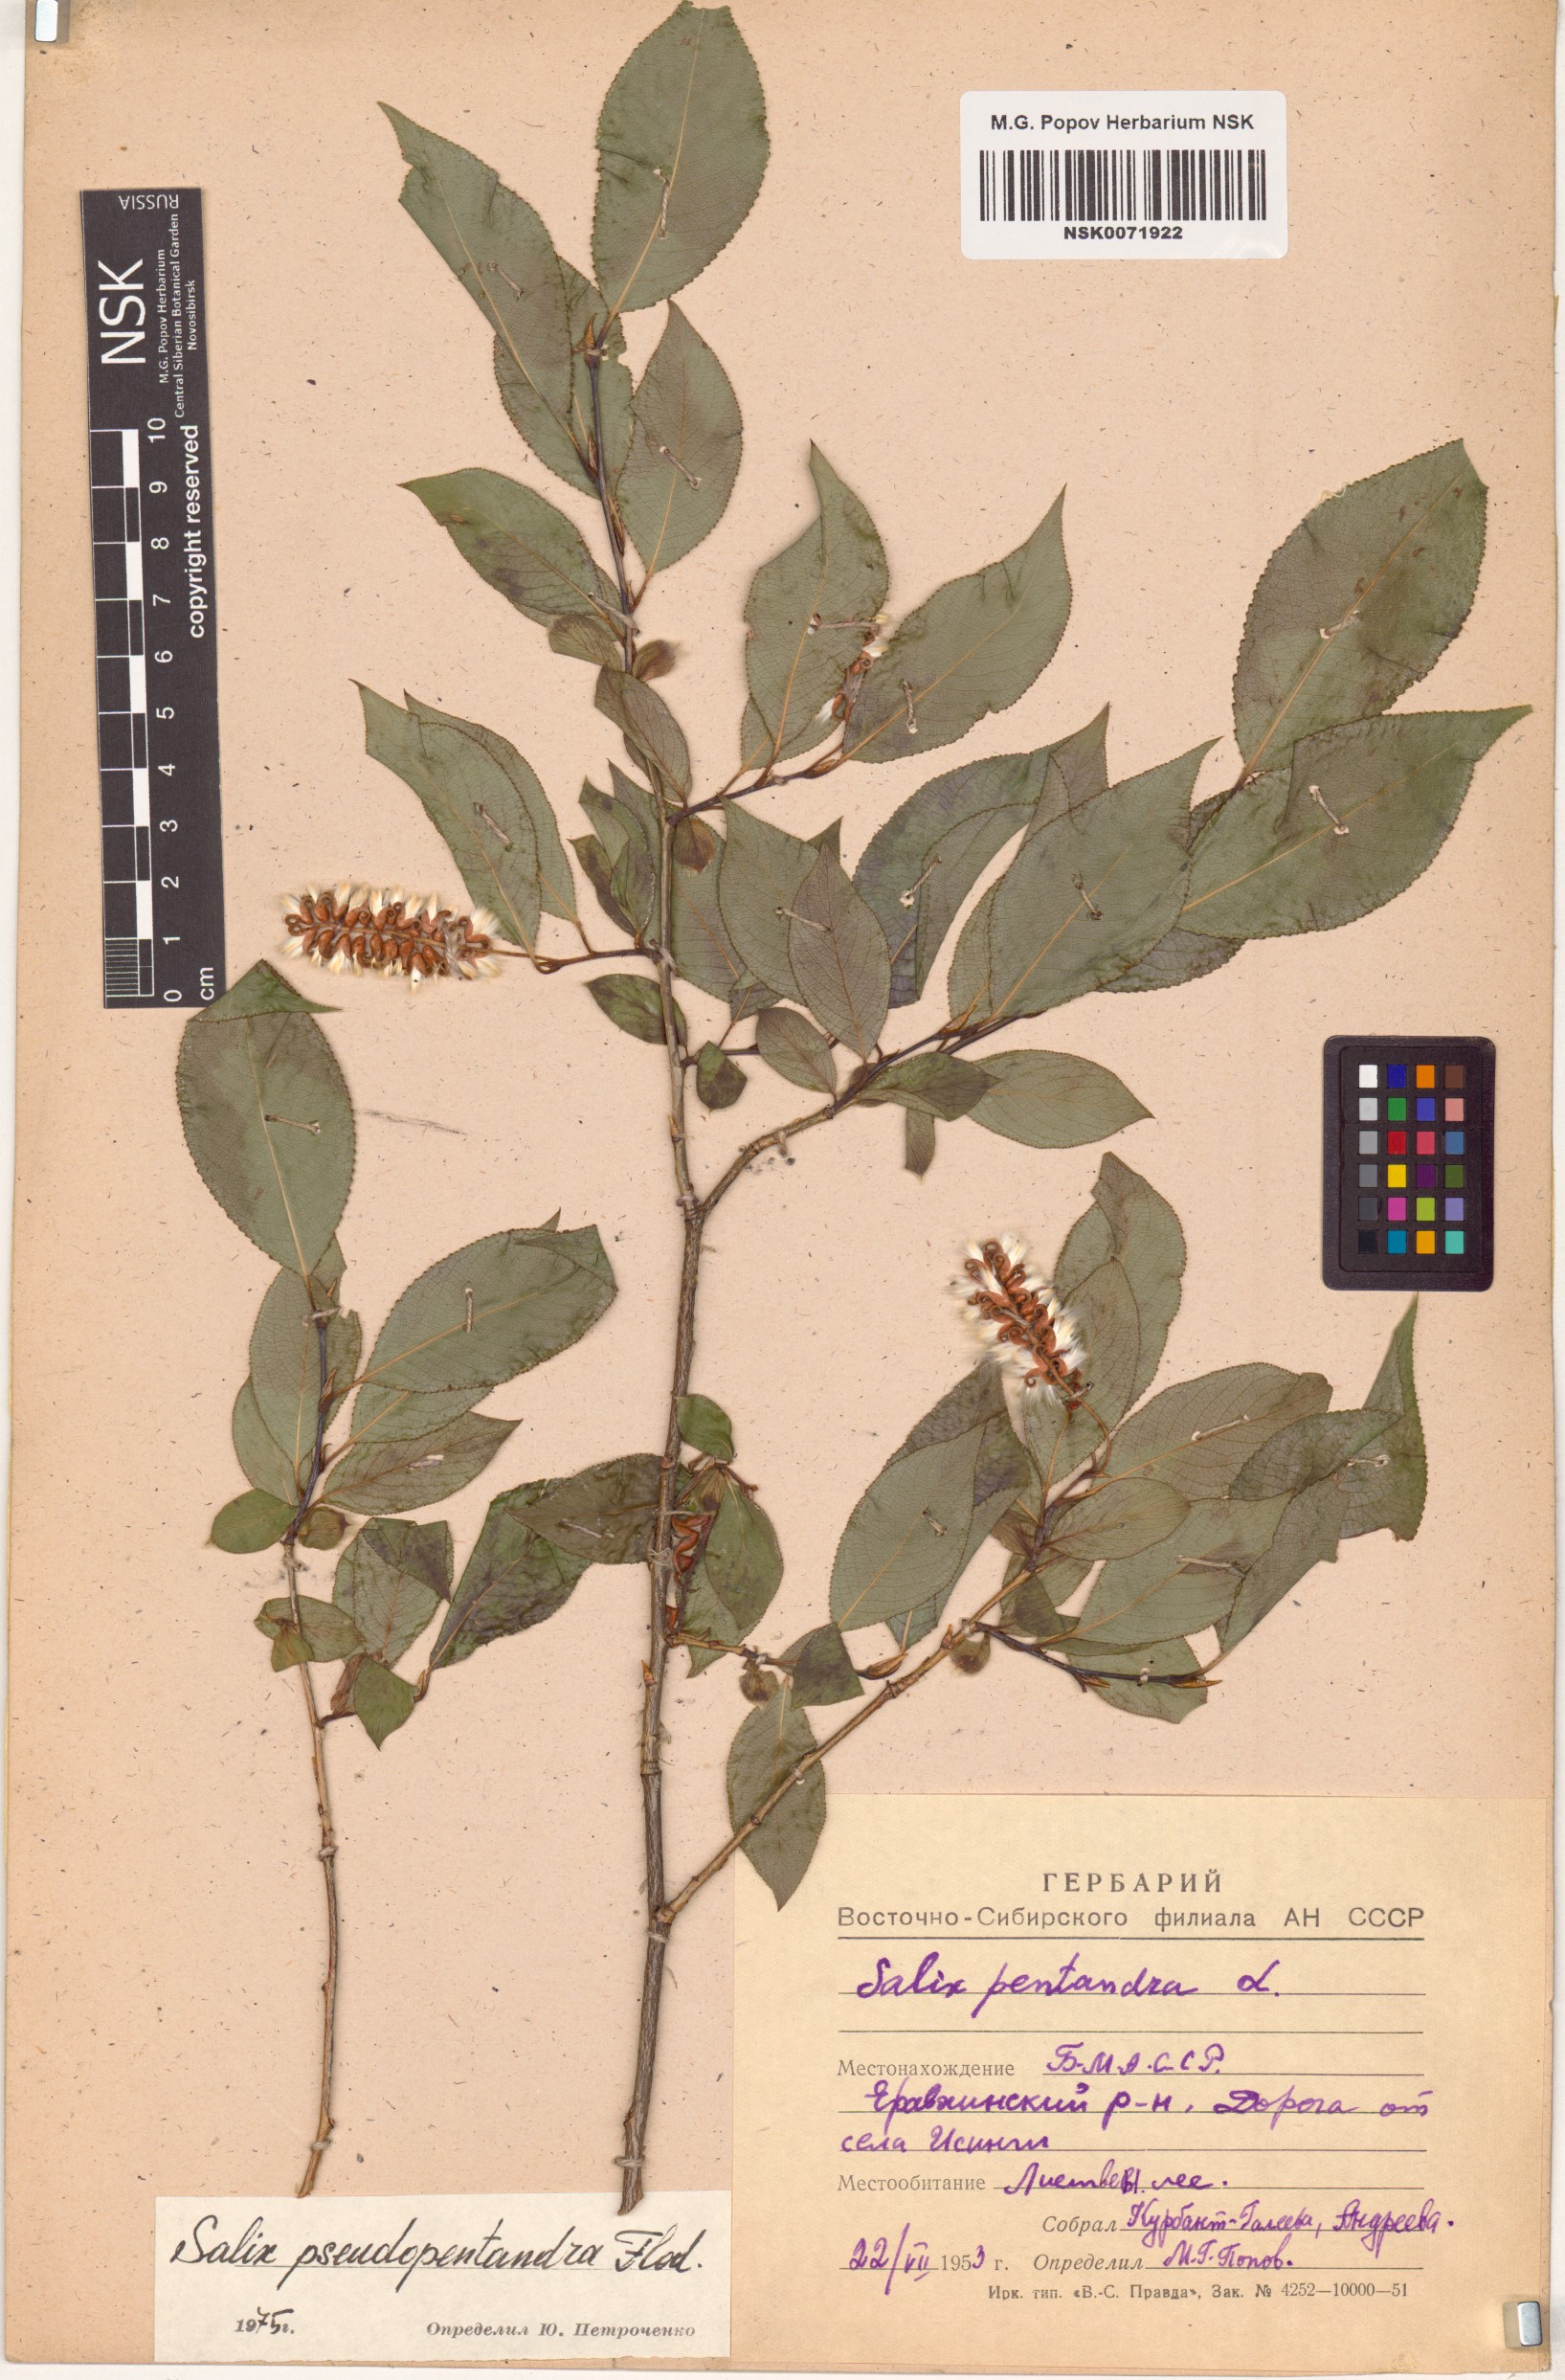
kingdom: Plantae
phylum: Tracheophyta
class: Magnoliopsida
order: Malpighiales
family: Salicaceae
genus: Salix
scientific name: Salix pseudopentandra
